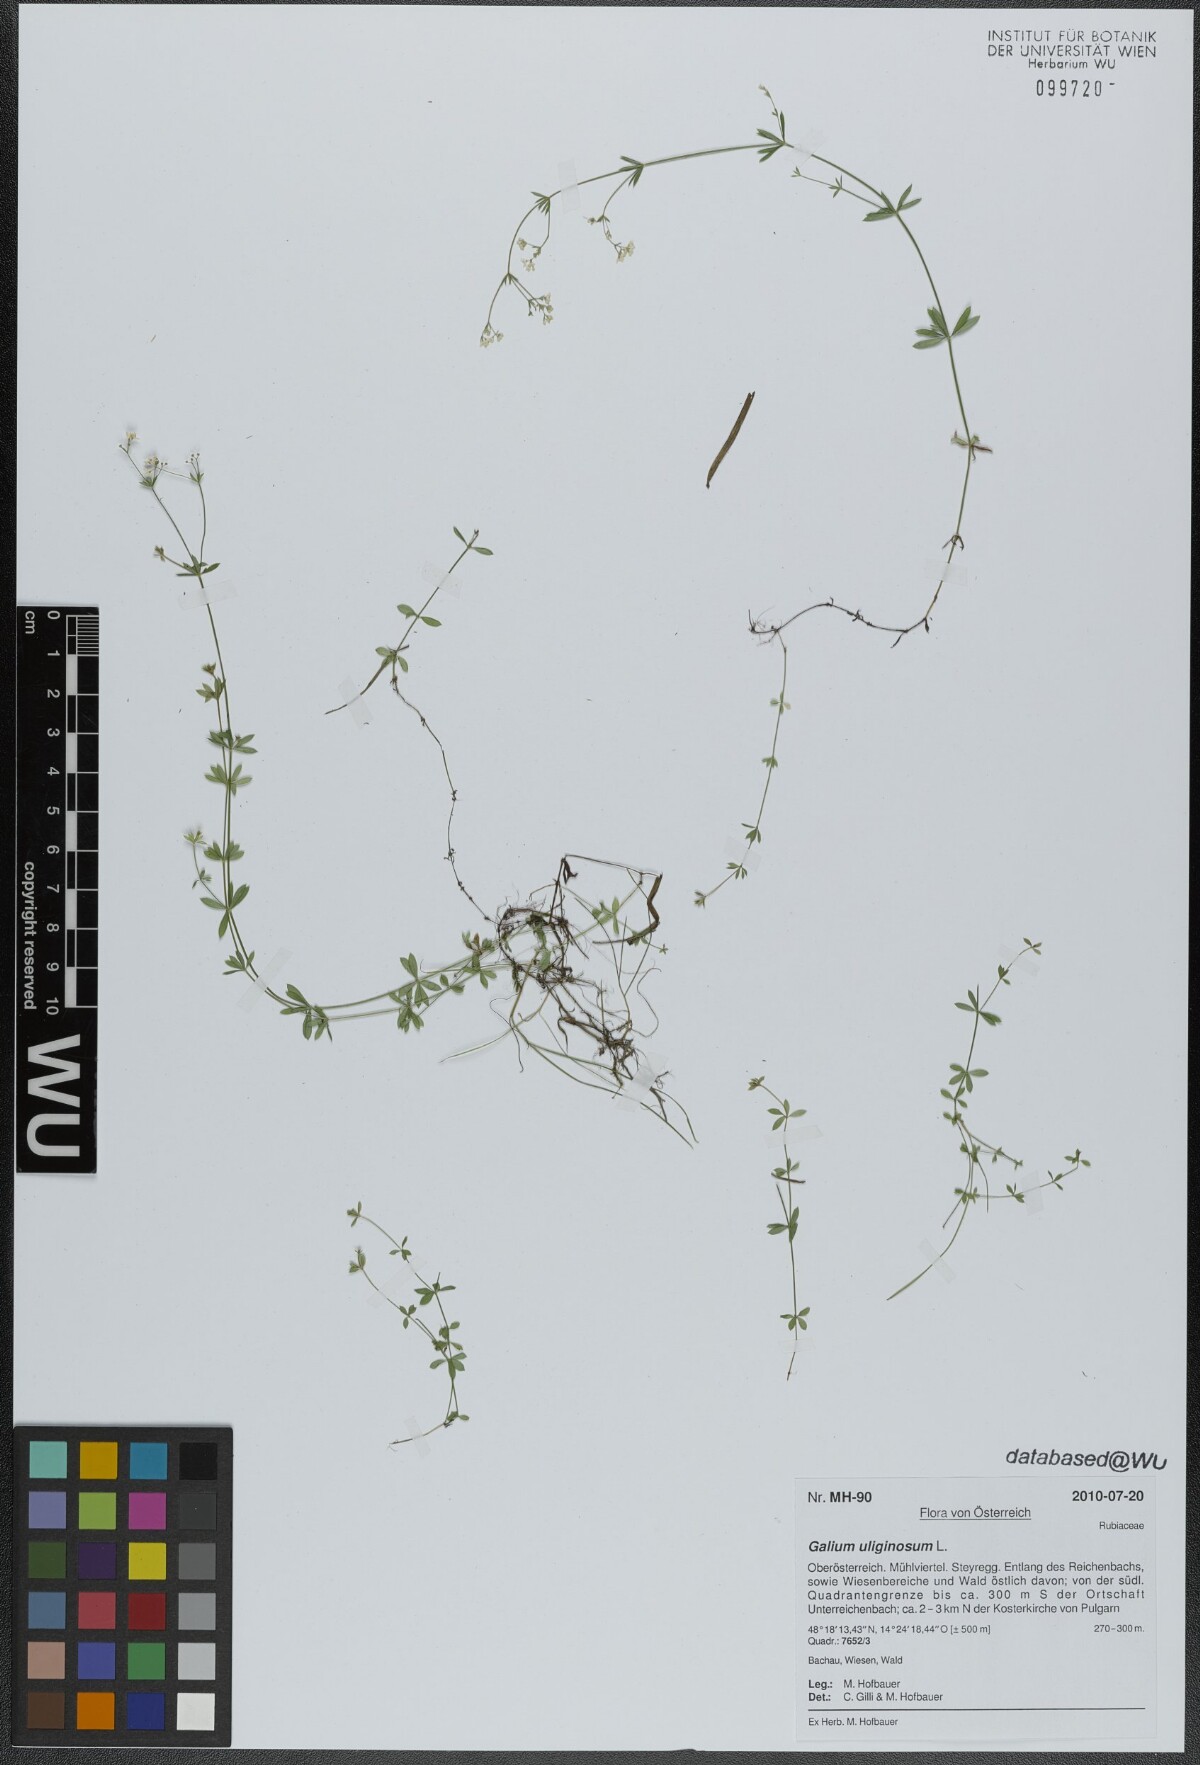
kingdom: Plantae
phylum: Tracheophyta
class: Magnoliopsida
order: Gentianales
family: Rubiaceae
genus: Galium
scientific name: Galium uliginosum
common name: Fen bedstraw
